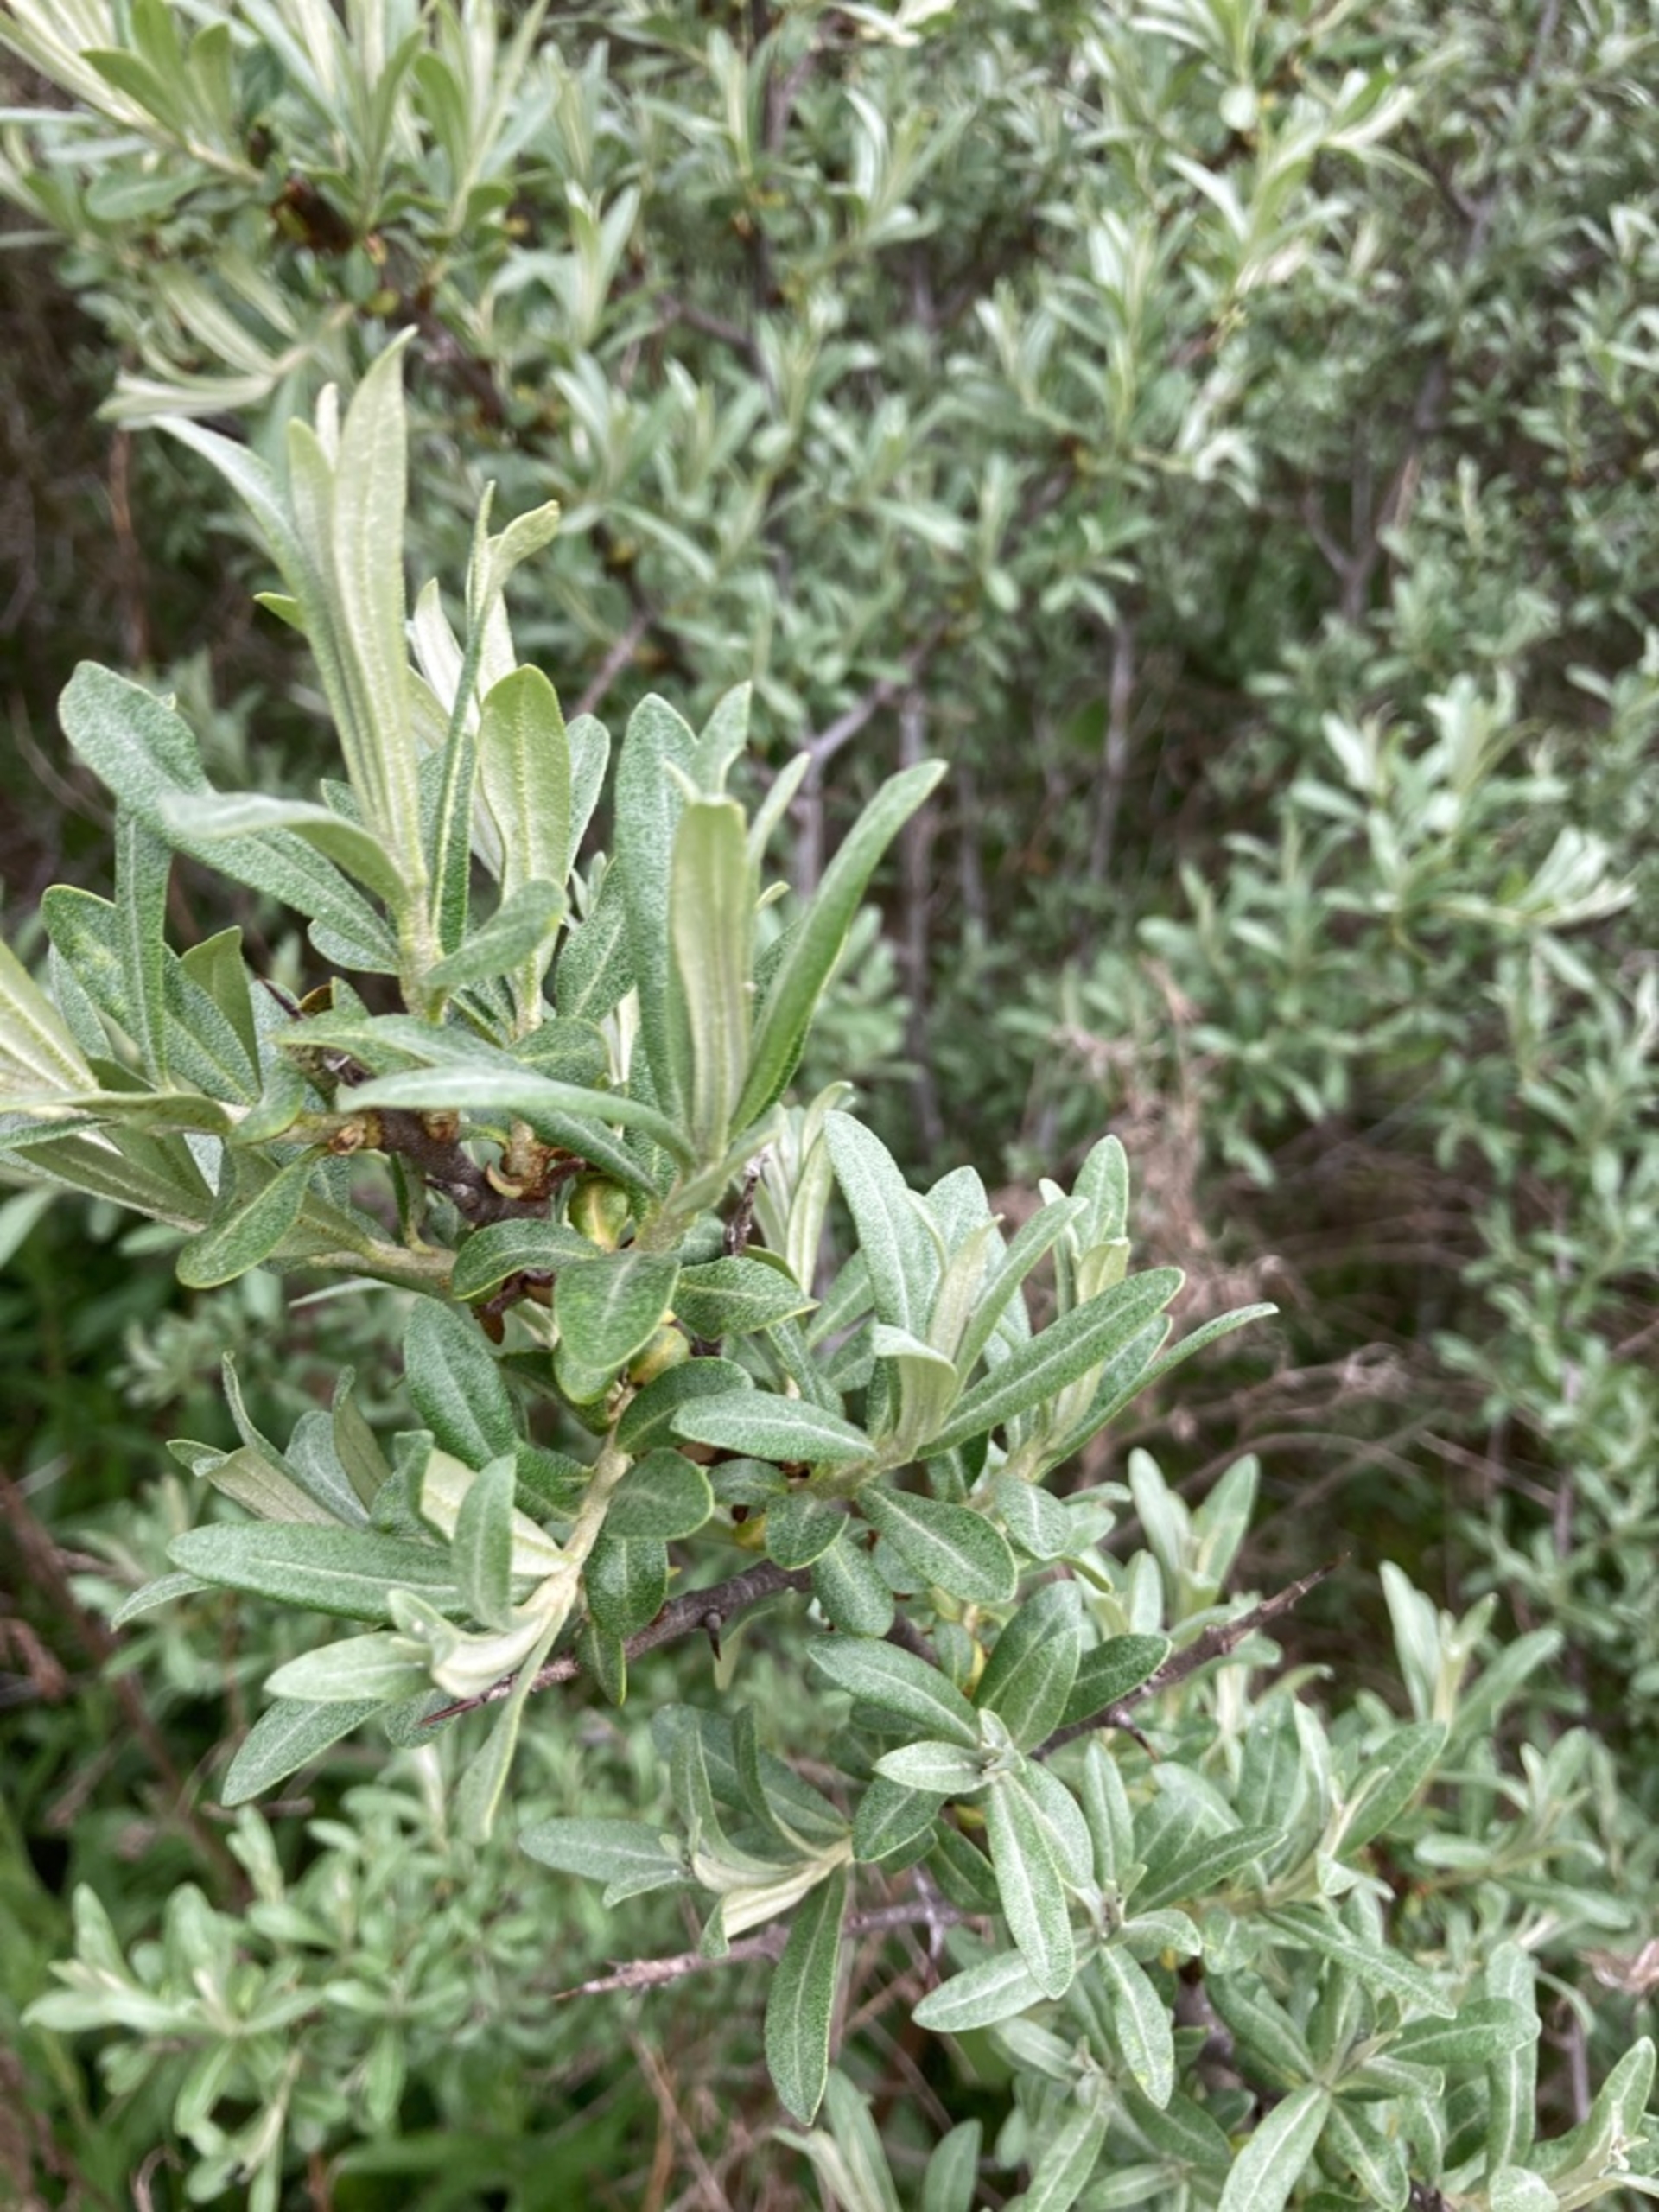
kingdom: Plantae
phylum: Tracheophyta
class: Magnoliopsida
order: Rosales
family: Elaeagnaceae
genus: Hippophae
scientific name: Hippophae rhamnoides
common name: Havtorn
